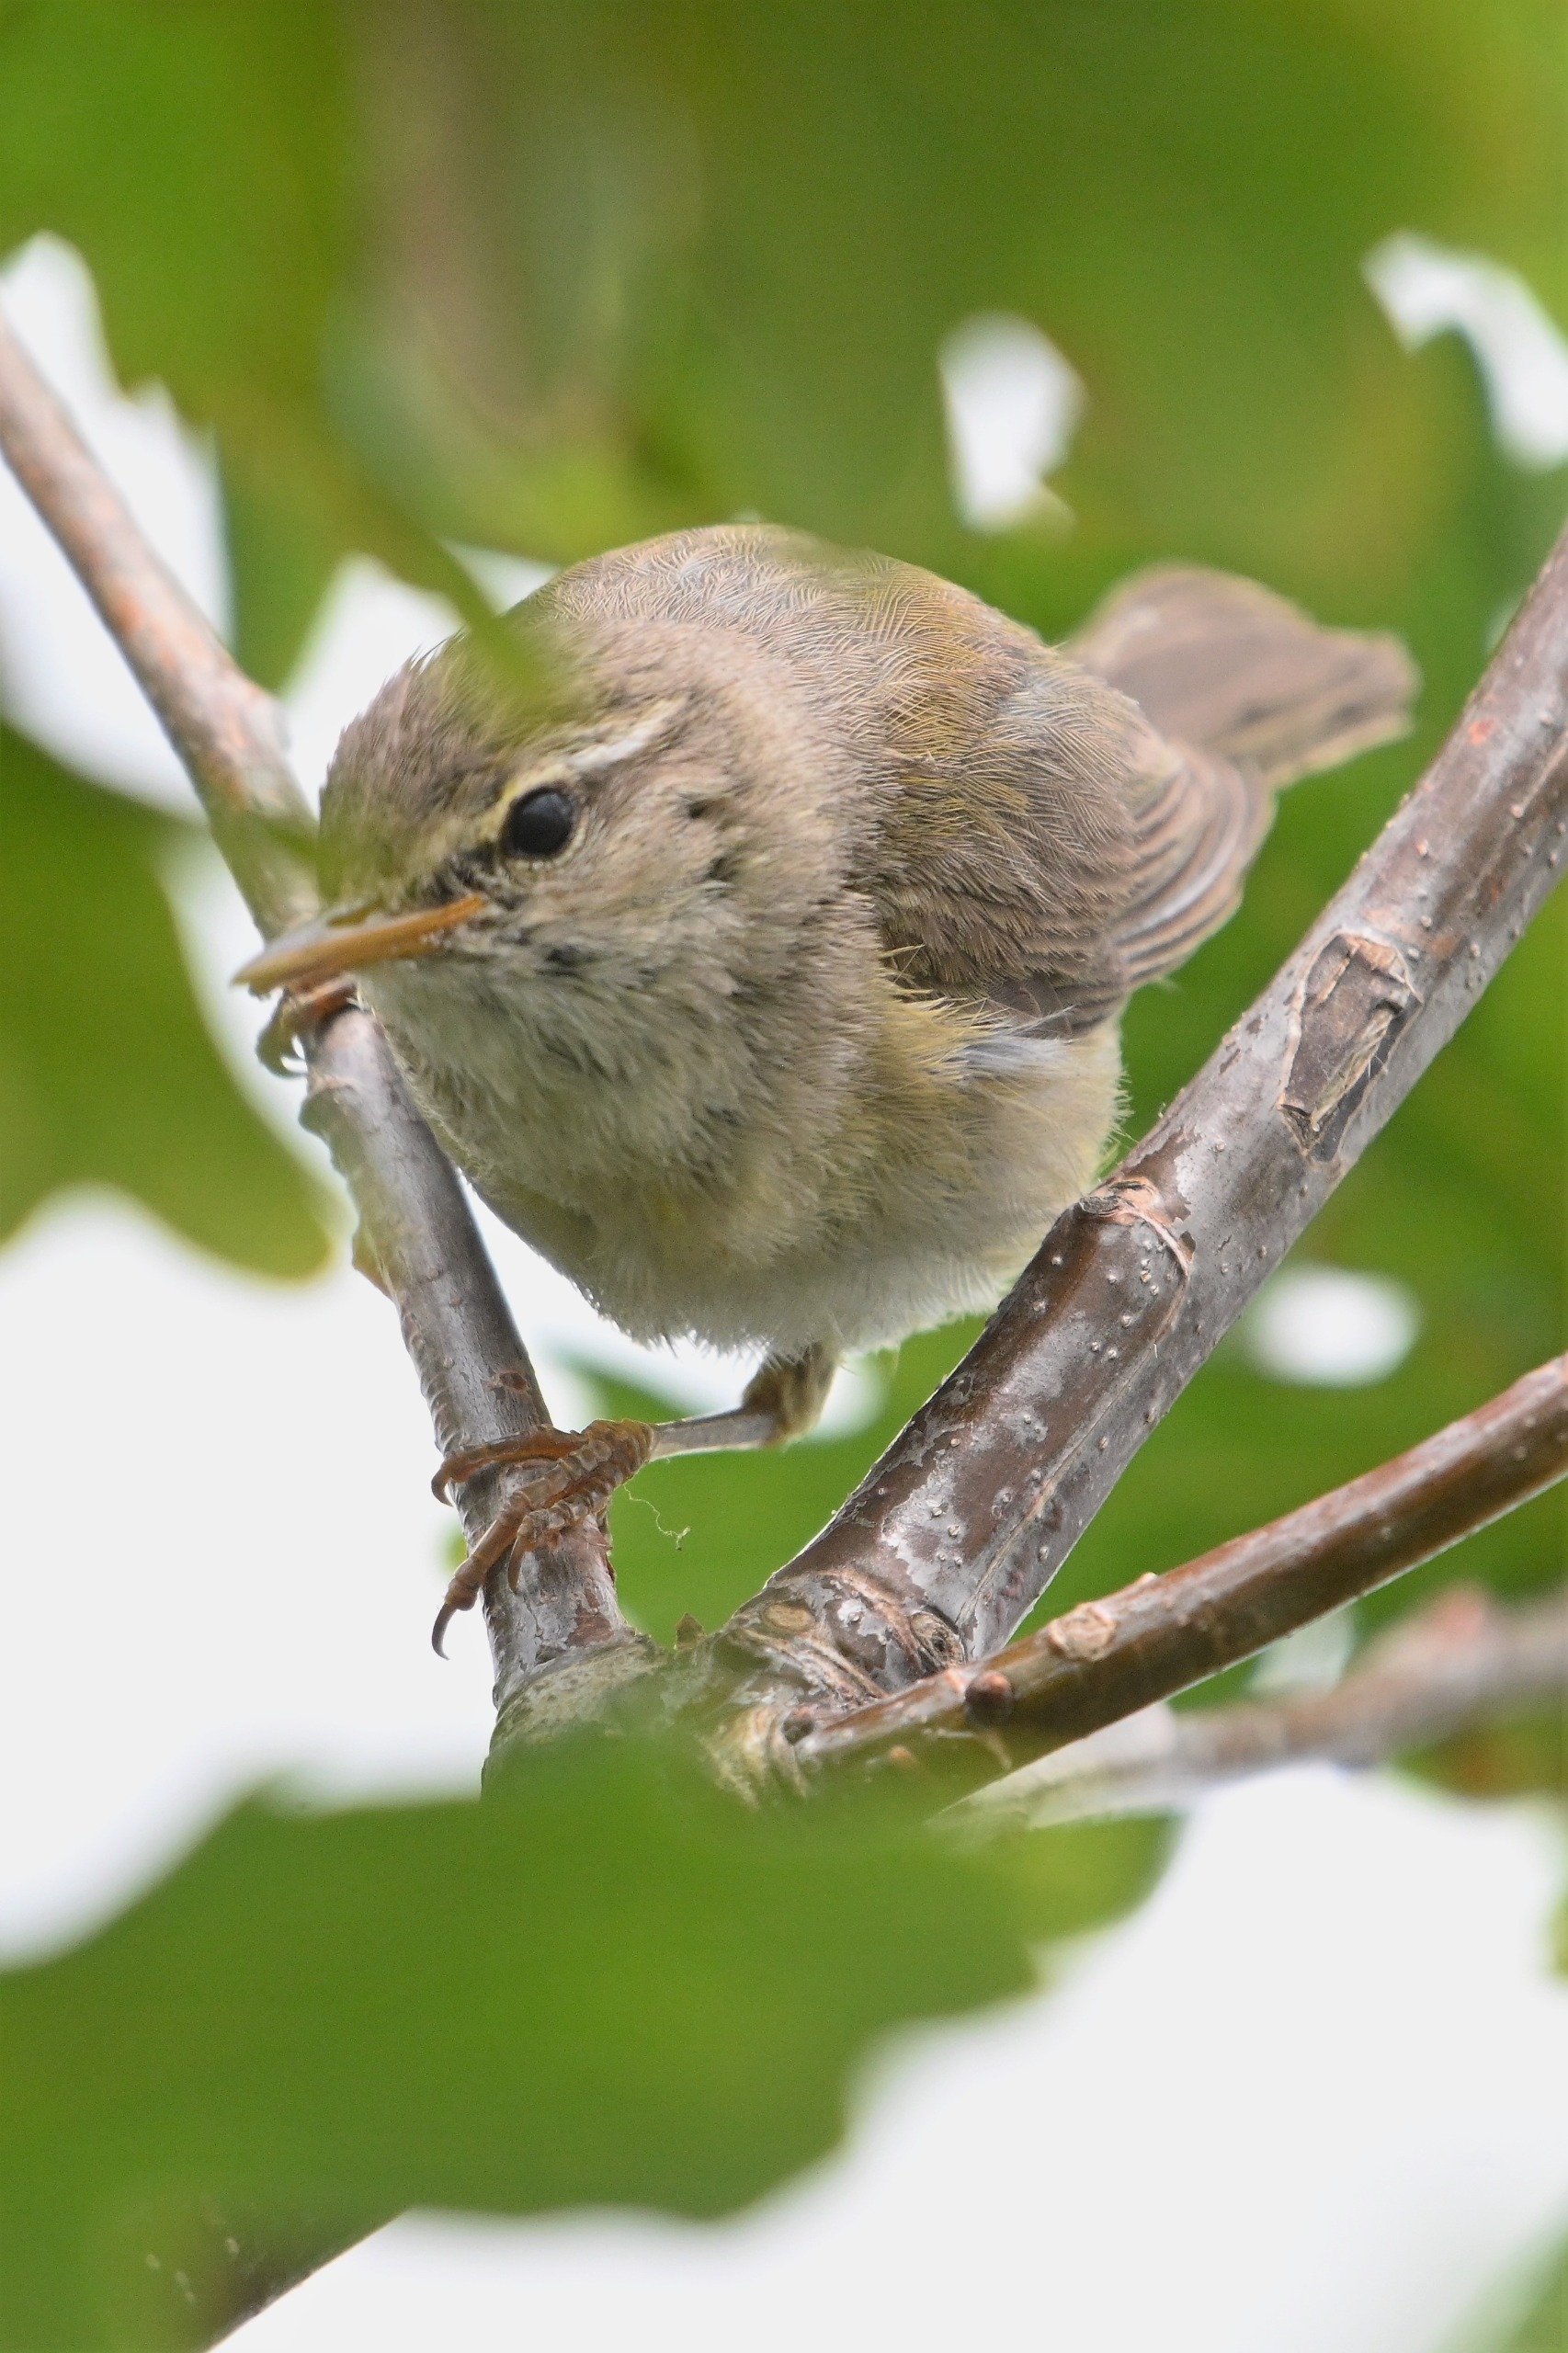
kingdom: Animalia
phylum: Chordata
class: Aves
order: Passeriformes
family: Phylloscopidae
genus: Phylloscopus
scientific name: Phylloscopus trochilus
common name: Løvsanger
